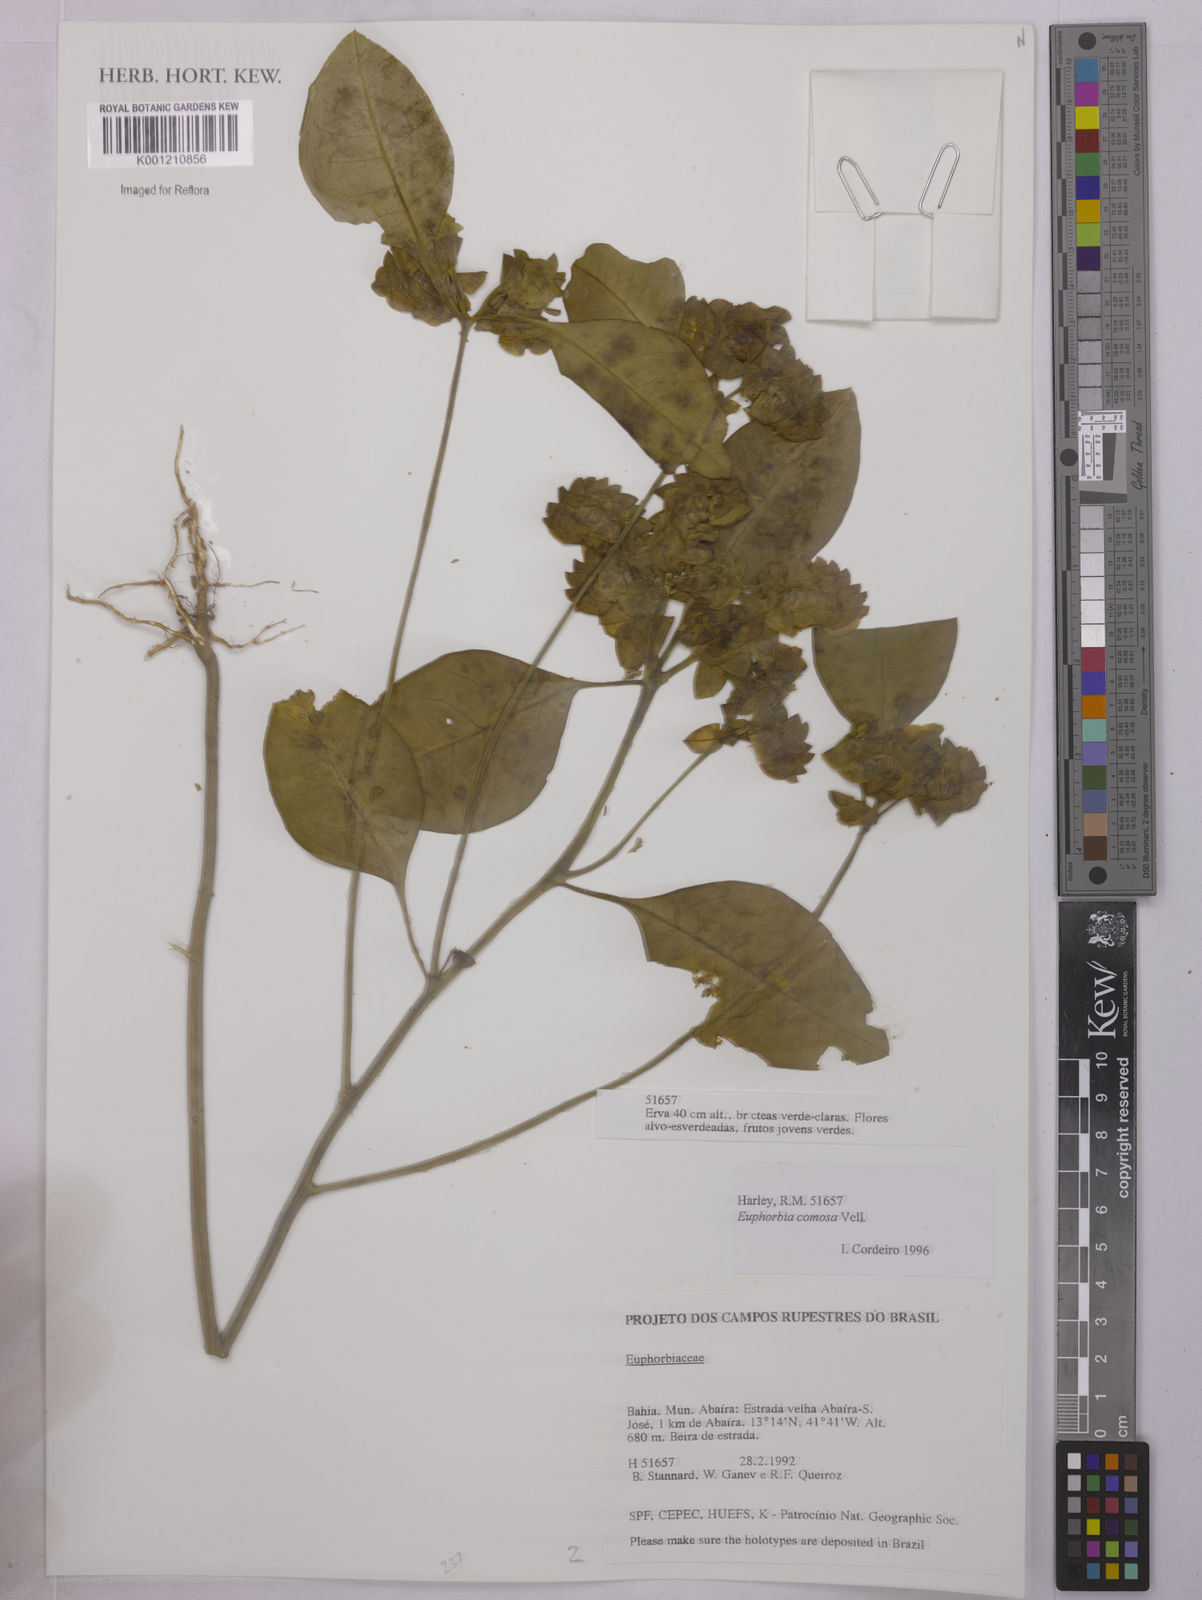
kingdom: Plantae
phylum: Tracheophyta
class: Magnoliopsida
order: Malpighiales
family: Euphorbiaceae
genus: Euphorbia
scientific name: Euphorbia comosa
